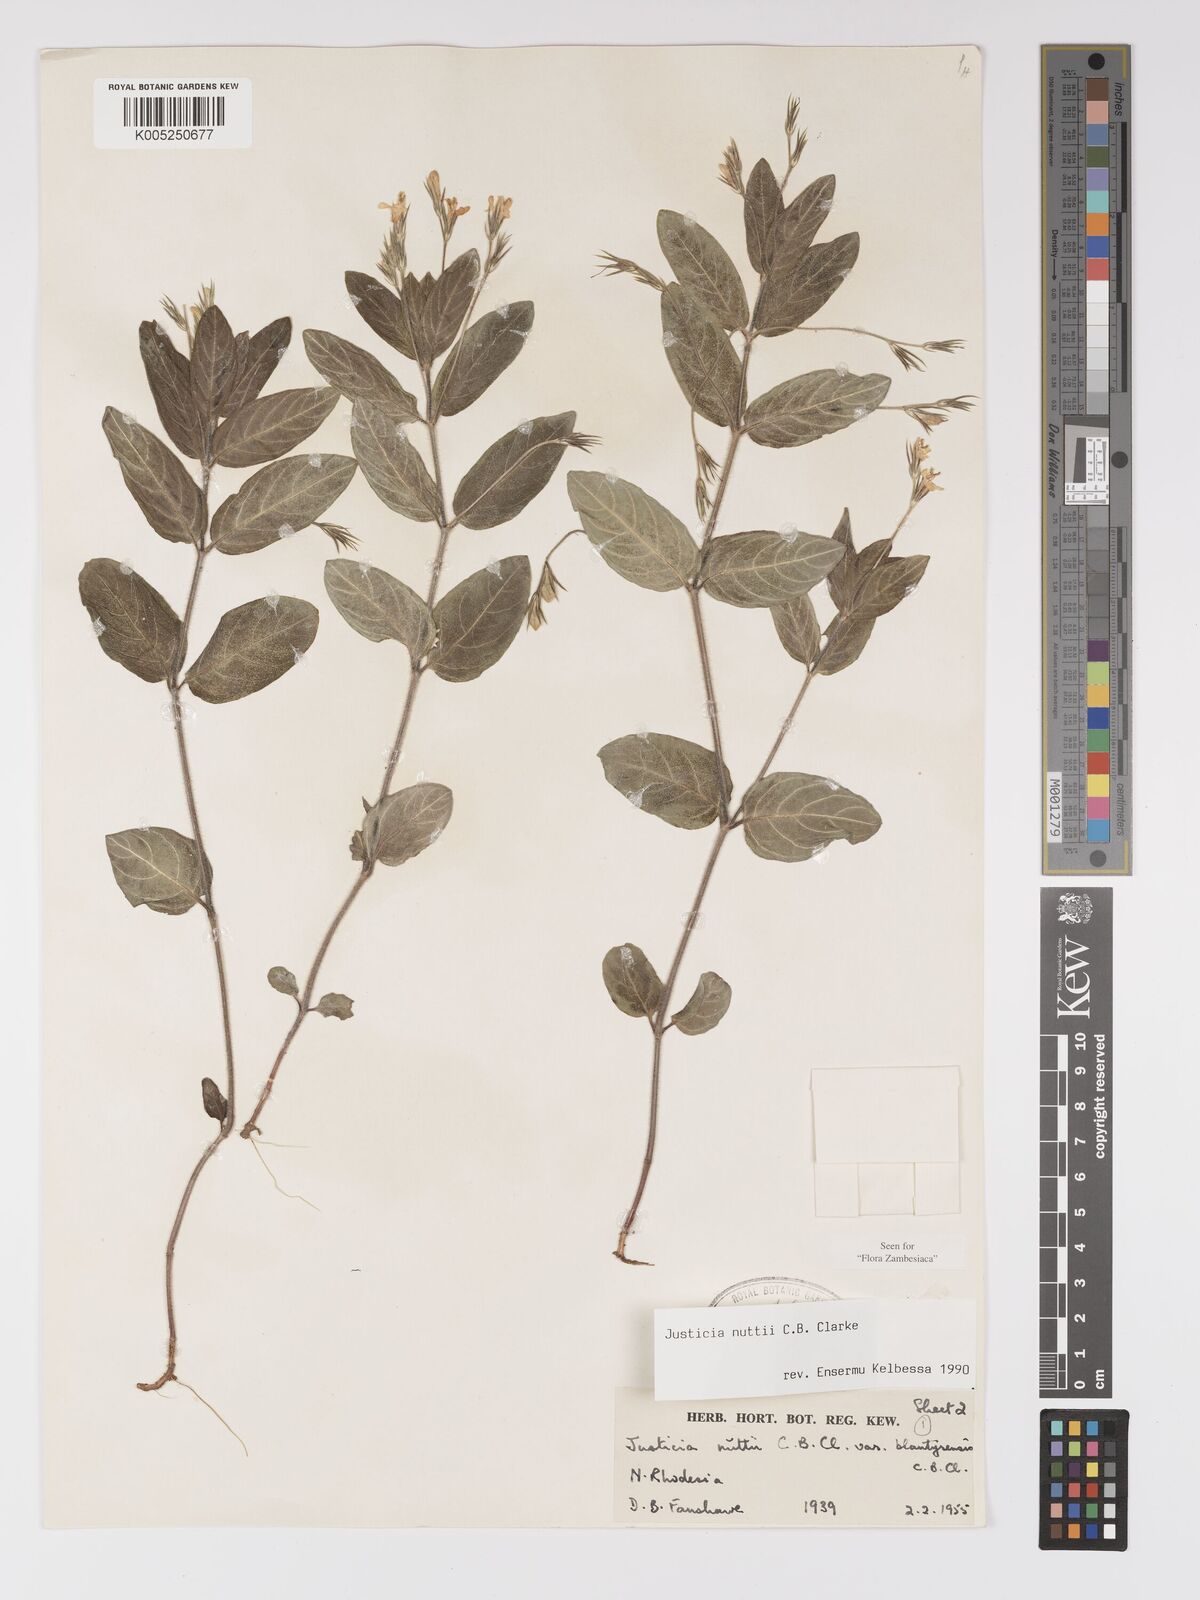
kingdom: Plantae
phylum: Tracheophyta
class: Magnoliopsida
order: Lamiales
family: Acanthaceae
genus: Justicia
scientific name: Justicia nuttii
